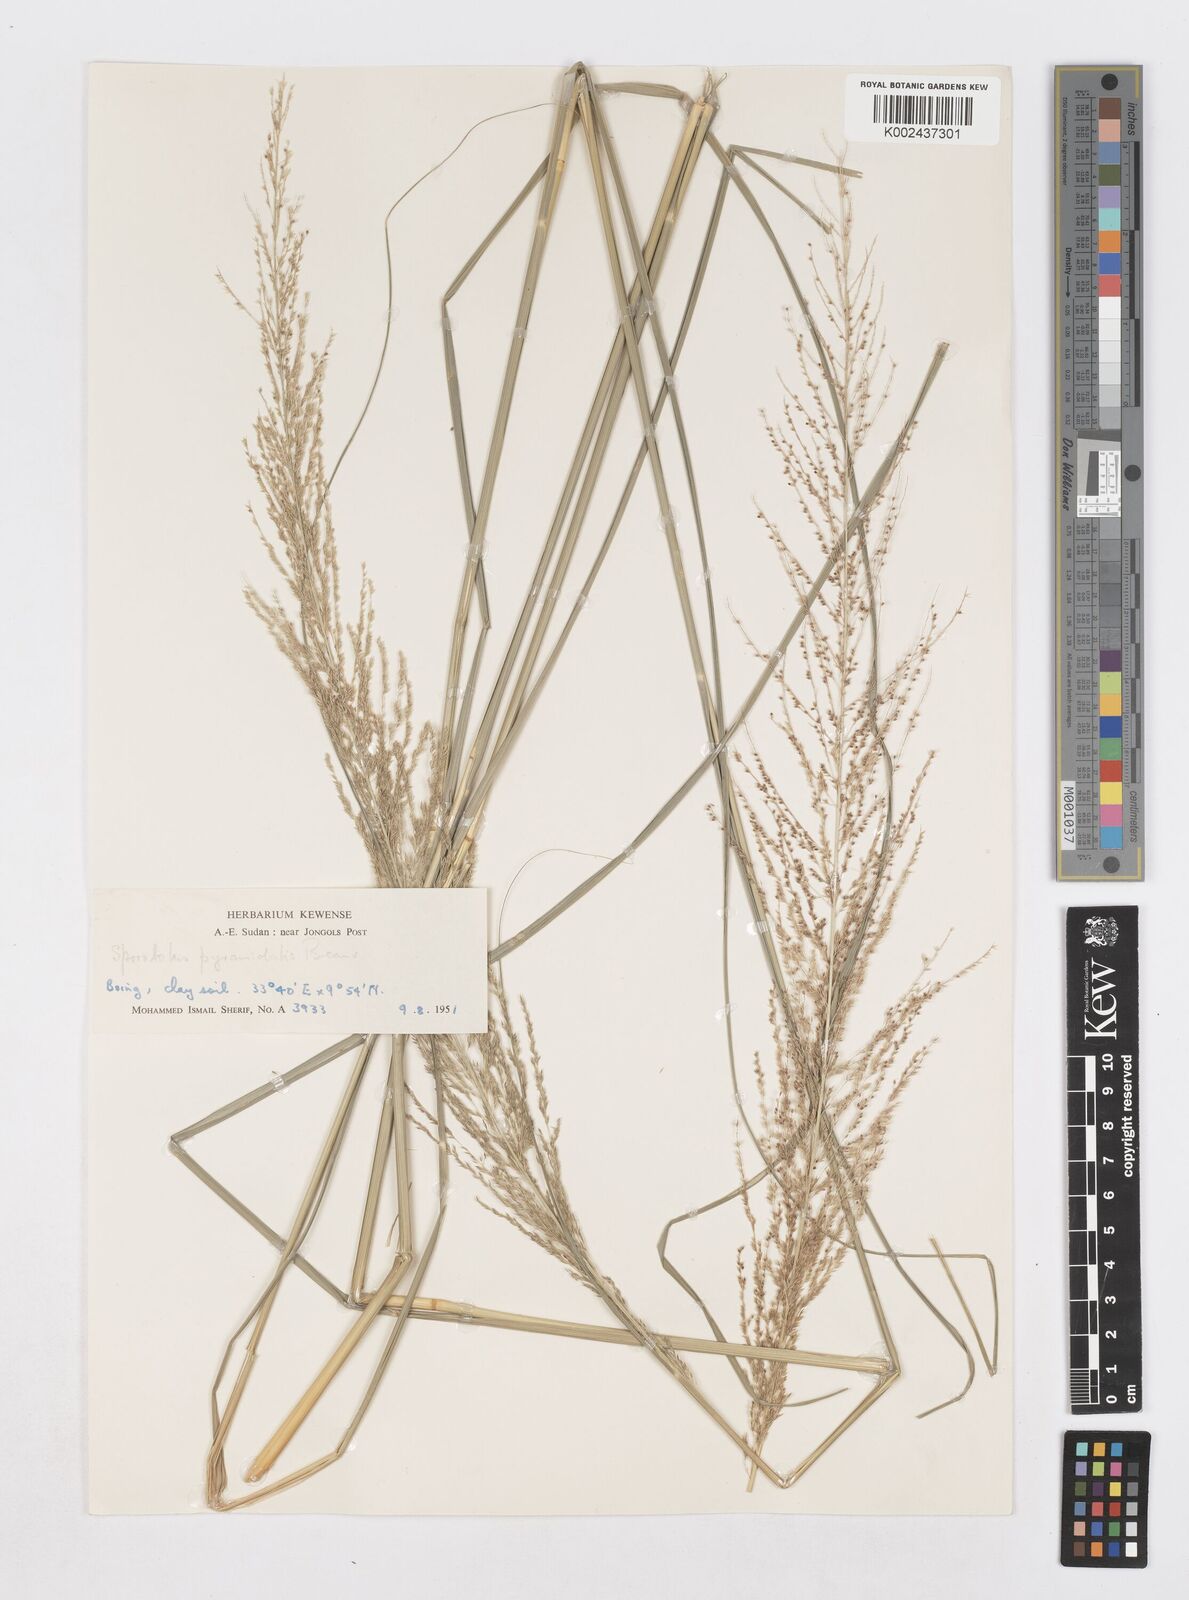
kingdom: Plantae
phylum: Tracheophyta
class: Liliopsida
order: Poales
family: Poaceae
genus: Sporobolus
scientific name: Sporobolus pyramidalis
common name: West indian dropseed
